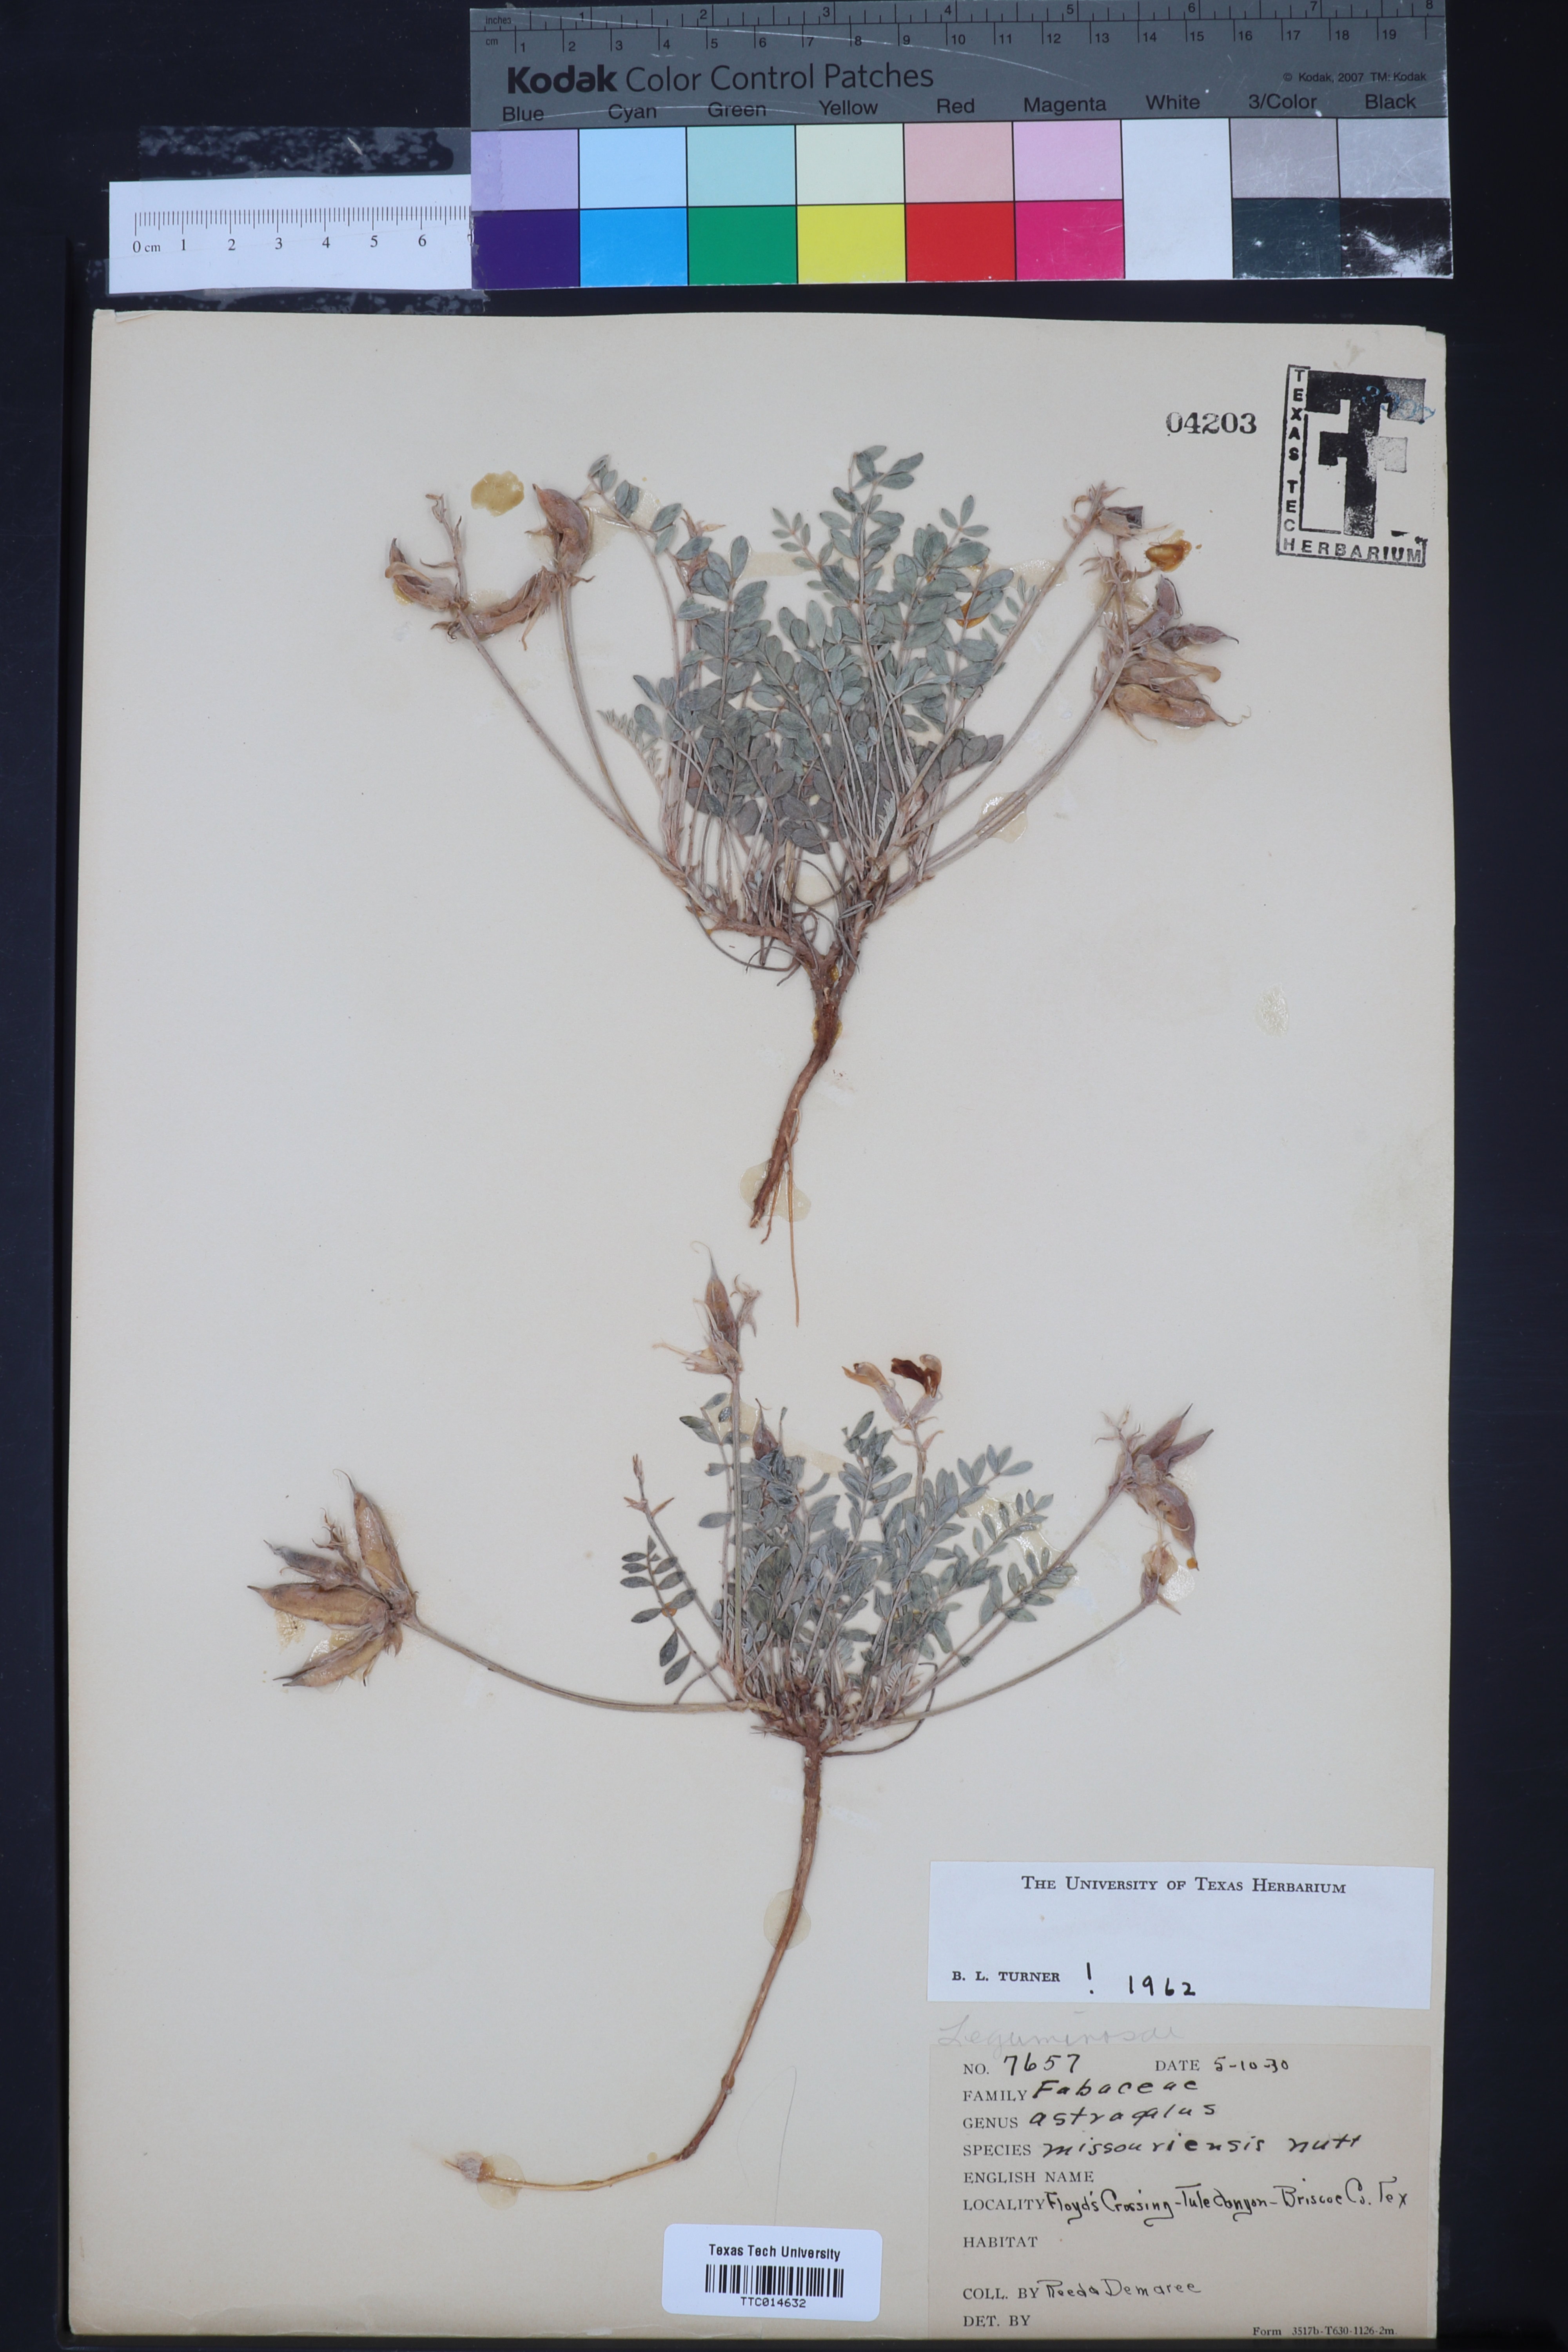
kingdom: Plantae
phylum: Tracheophyta
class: Magnoliopsida
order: Fabales
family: Fabaceae
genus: Astragalus
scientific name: Astragalus missouriensis
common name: Missouri milk-vetch
